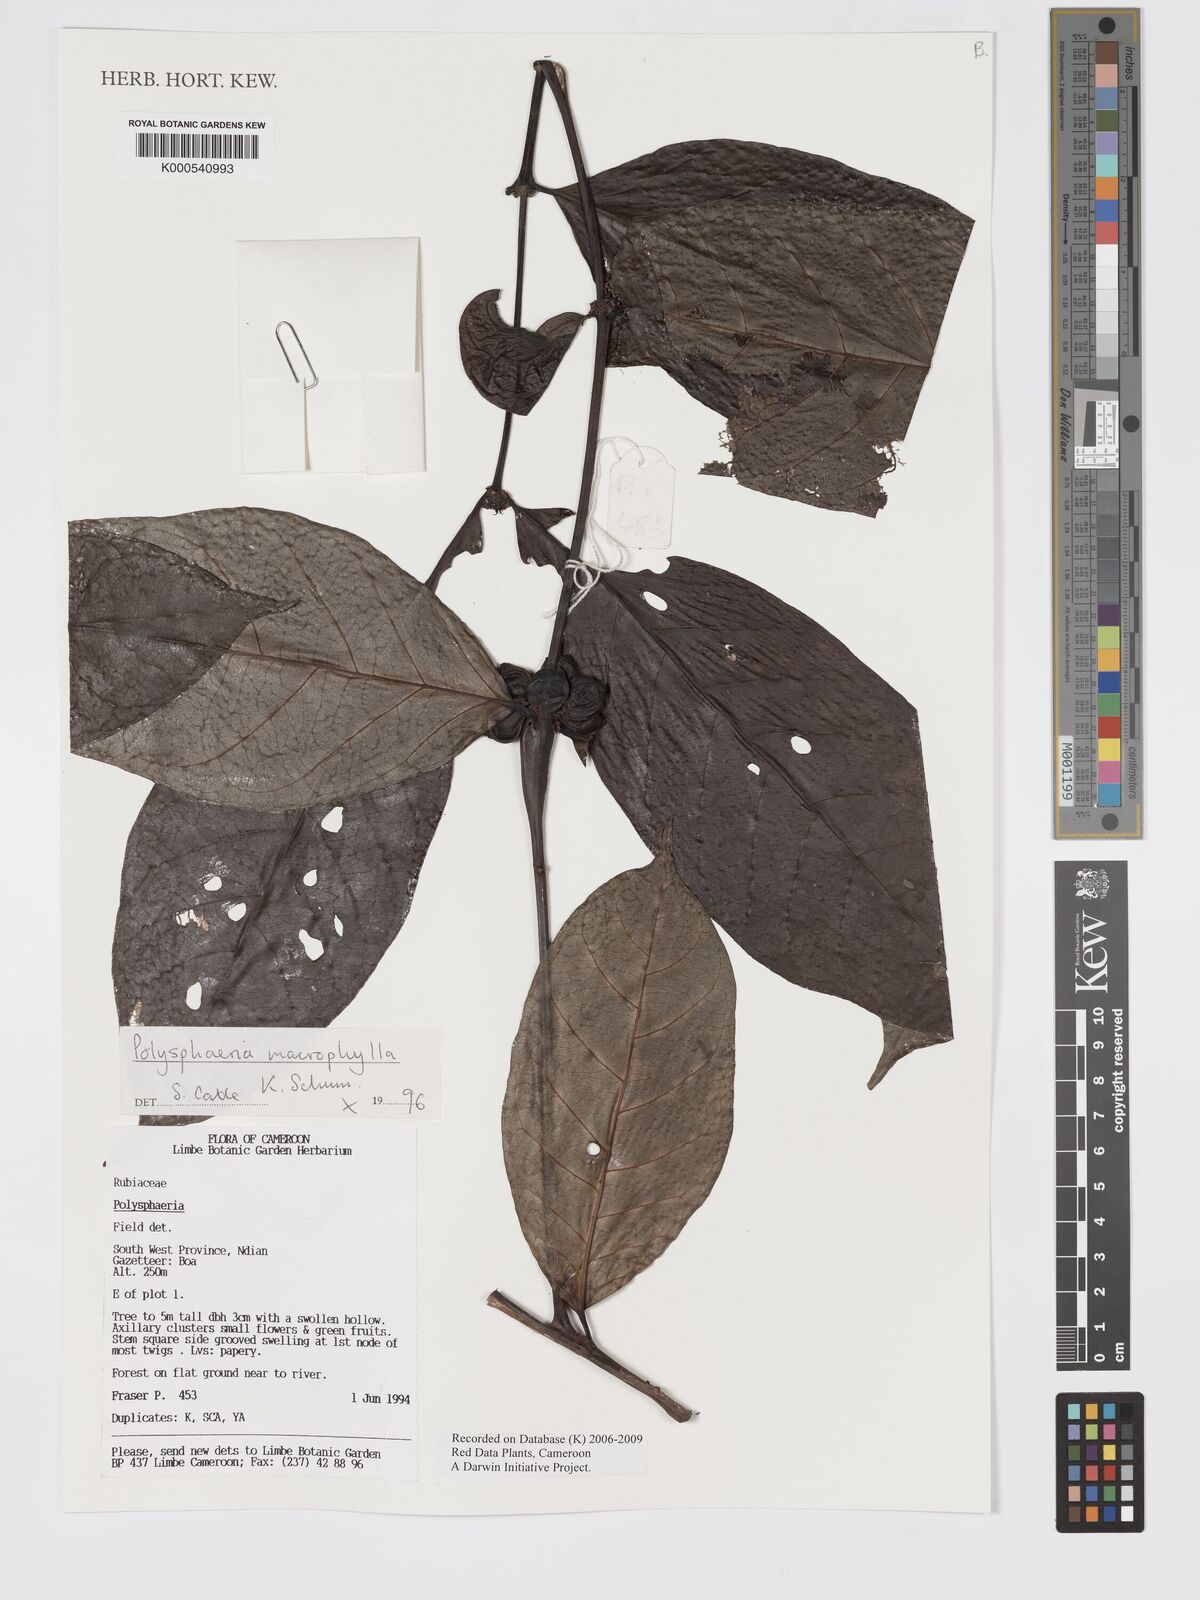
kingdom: Plantae
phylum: Tracheophyta
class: Magnoliopsida
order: Gentianales
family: Rubiaceae
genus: Polysphaeria
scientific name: Polysphaeria macrophylla
